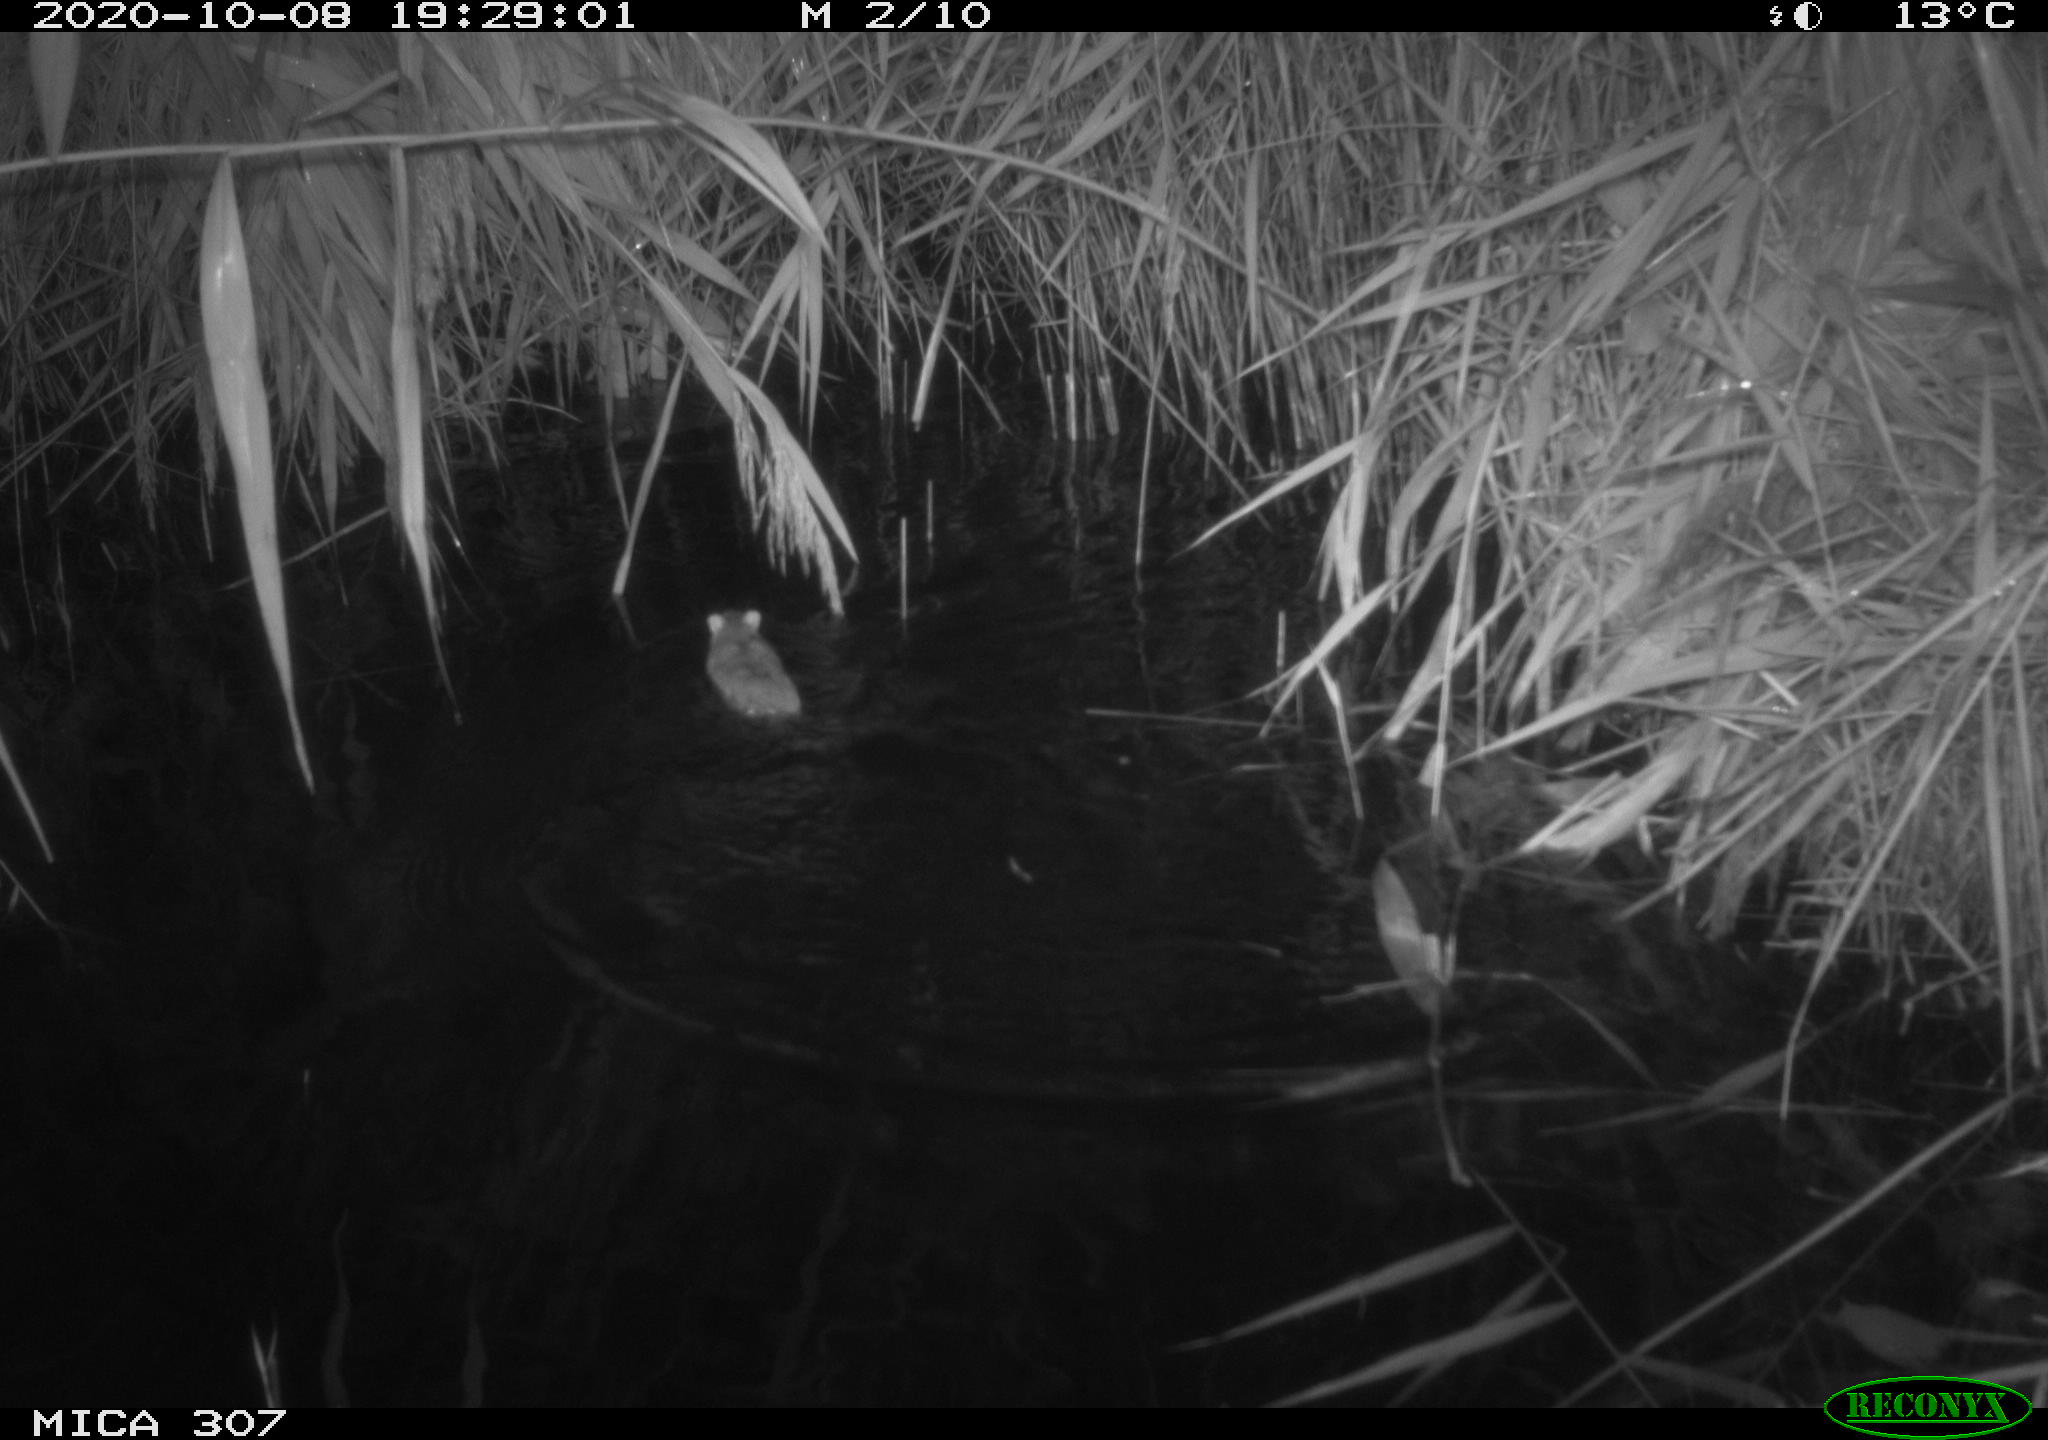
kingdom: Animalia
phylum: Chordata
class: Mammalia
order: Rodentia
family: Muridae
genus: Rattus
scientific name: Rattus norvegicus
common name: Brown rat
